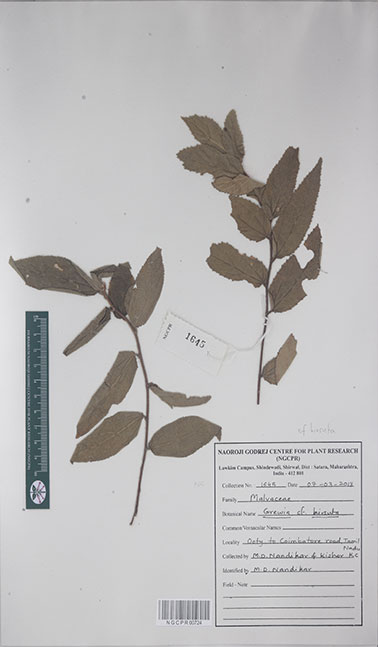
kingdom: Plantae
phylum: Tracheophyta
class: Magnoliopsida
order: Malvales
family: Malvaceae
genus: Grewia
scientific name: Grewia hirsuta
